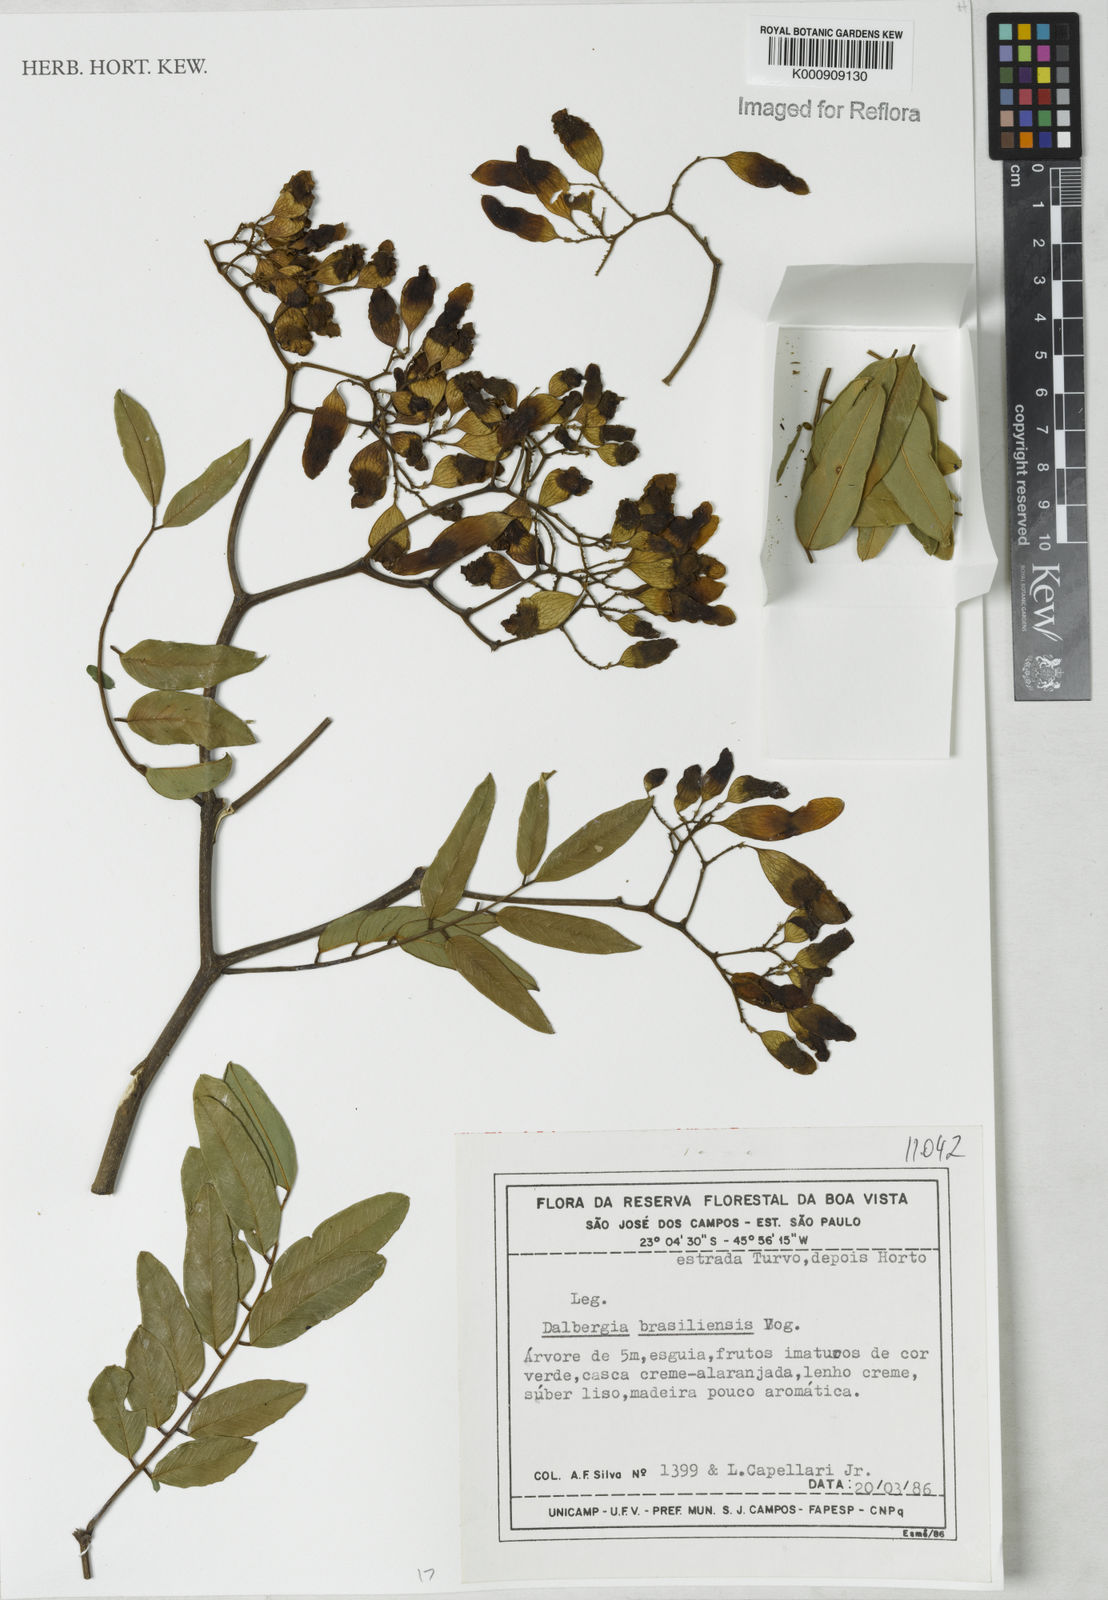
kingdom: Plantae
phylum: Tracheophyta
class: Magnoliopsida
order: Fabales
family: Fabaceae
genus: Dalbergia
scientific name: Dalbergia brasiliensis
